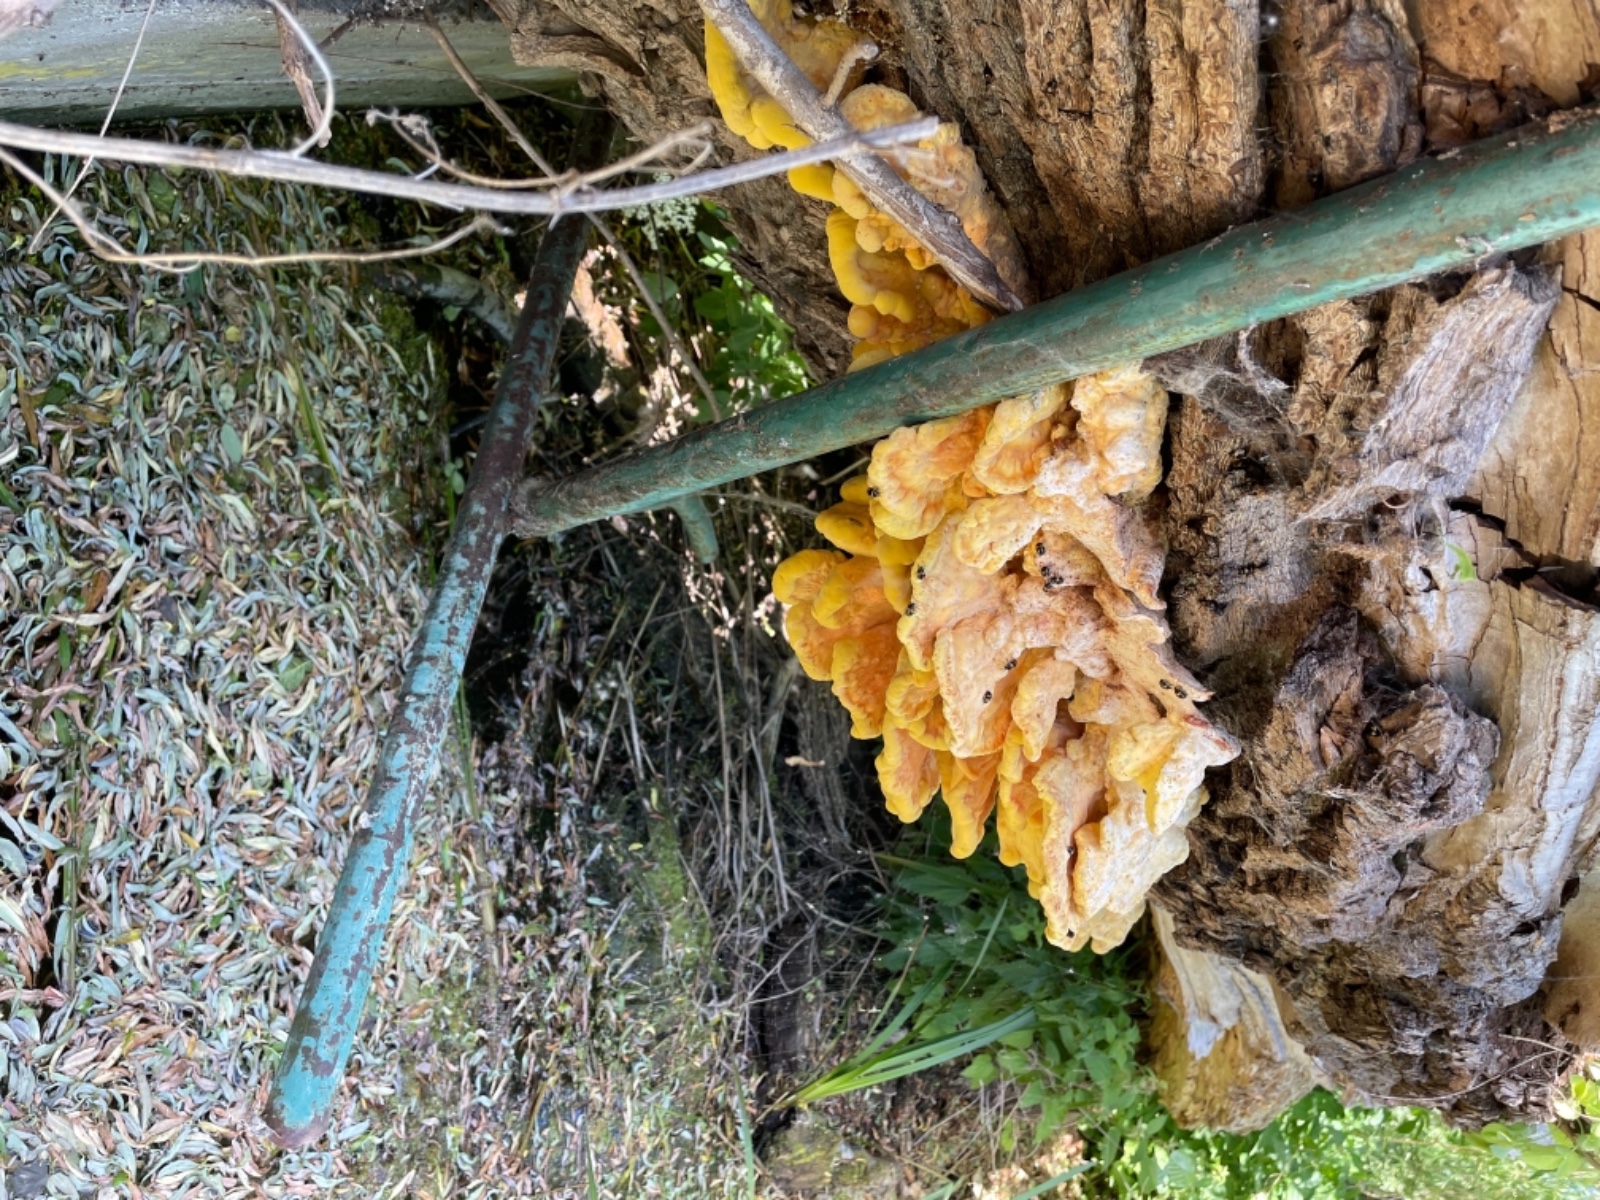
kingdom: Fungi
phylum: Basidiomycota
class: Agaricomycetes
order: Polyporales
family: Laetiporaceae
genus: Laetiporus
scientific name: Laetiporus sulphureus
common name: svovlporesvamp
